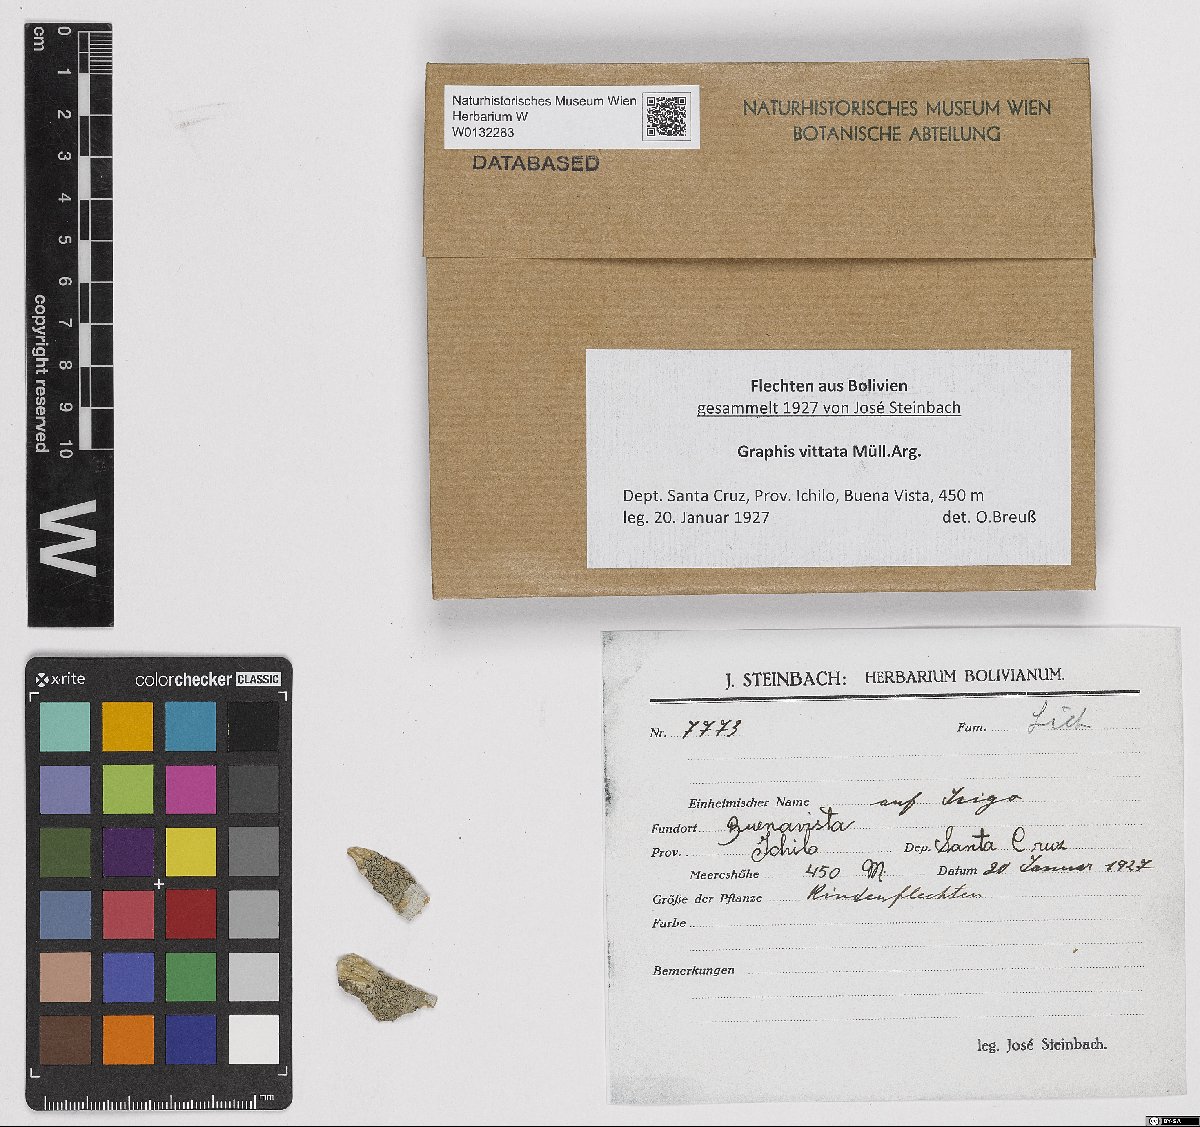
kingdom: Fungi
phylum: Ascomycota
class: Lecanoromycetes
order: Ostropales
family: Graphidaceae
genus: Graphis
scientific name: Graphis vittata
